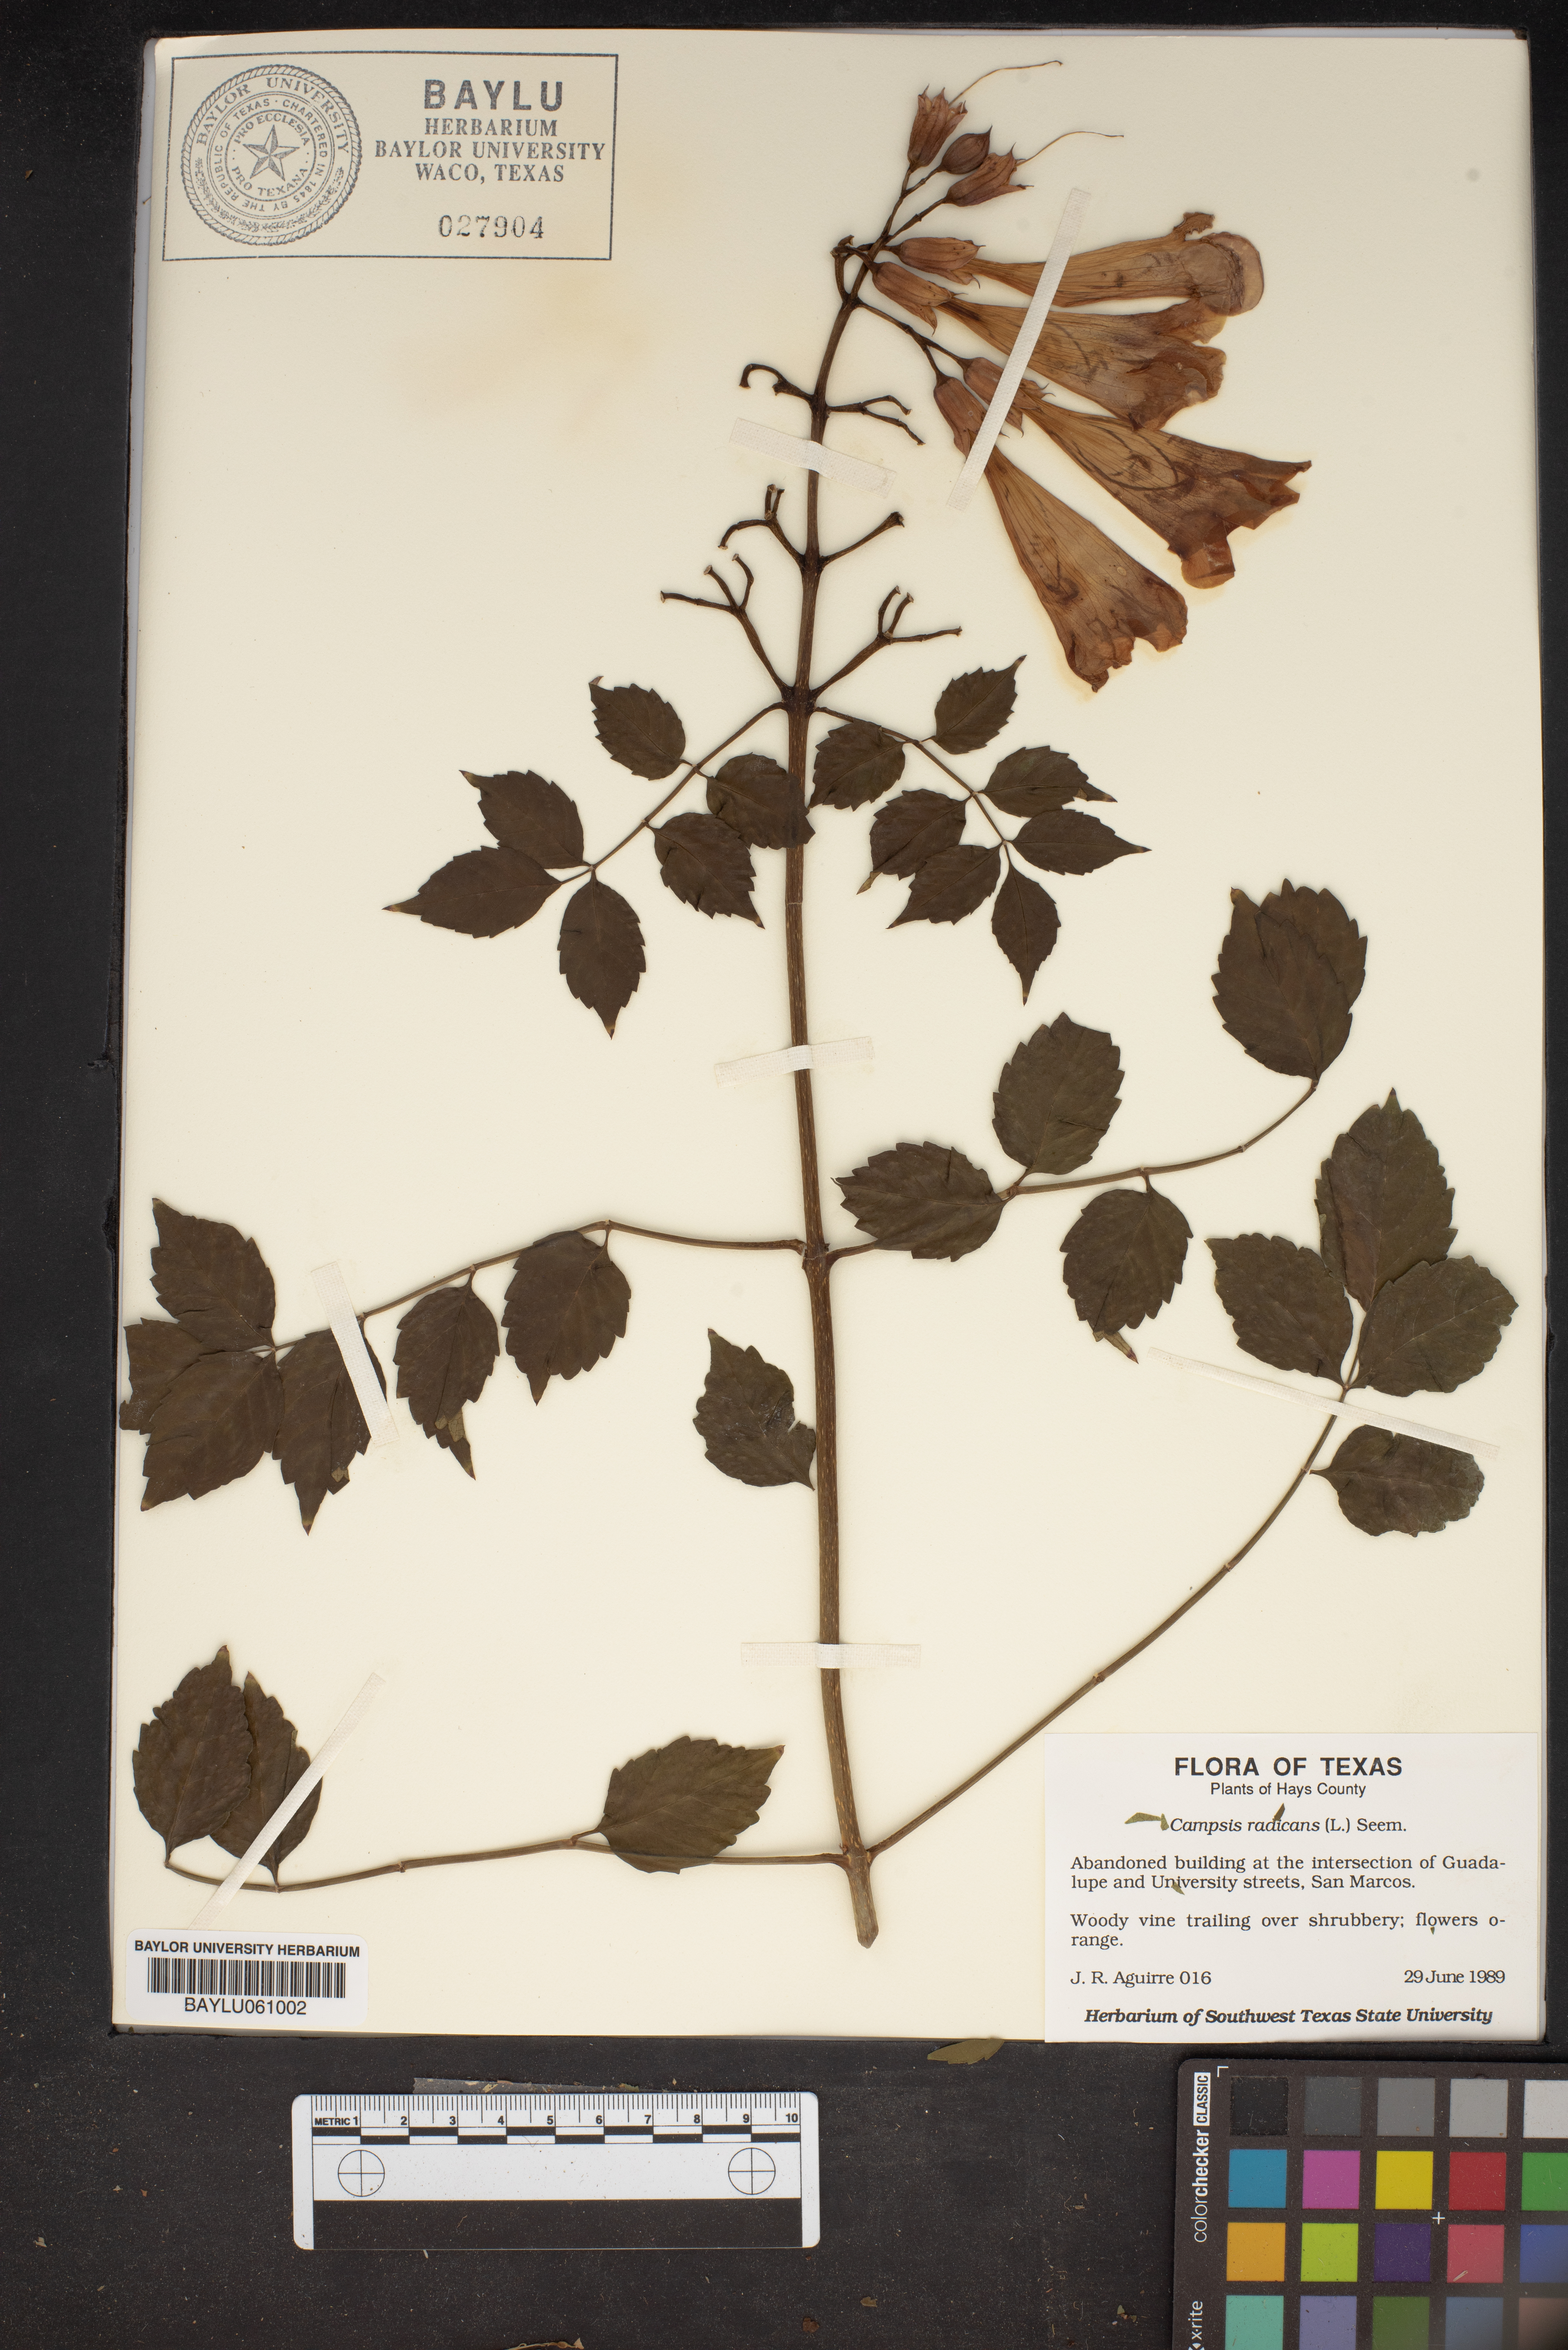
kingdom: Plantae
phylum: Tracheophyta
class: Magnoliopsida
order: Lamiales
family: Bignoniaceae
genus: Campsis
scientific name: Campsis radicans
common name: Trumpet-creeper
